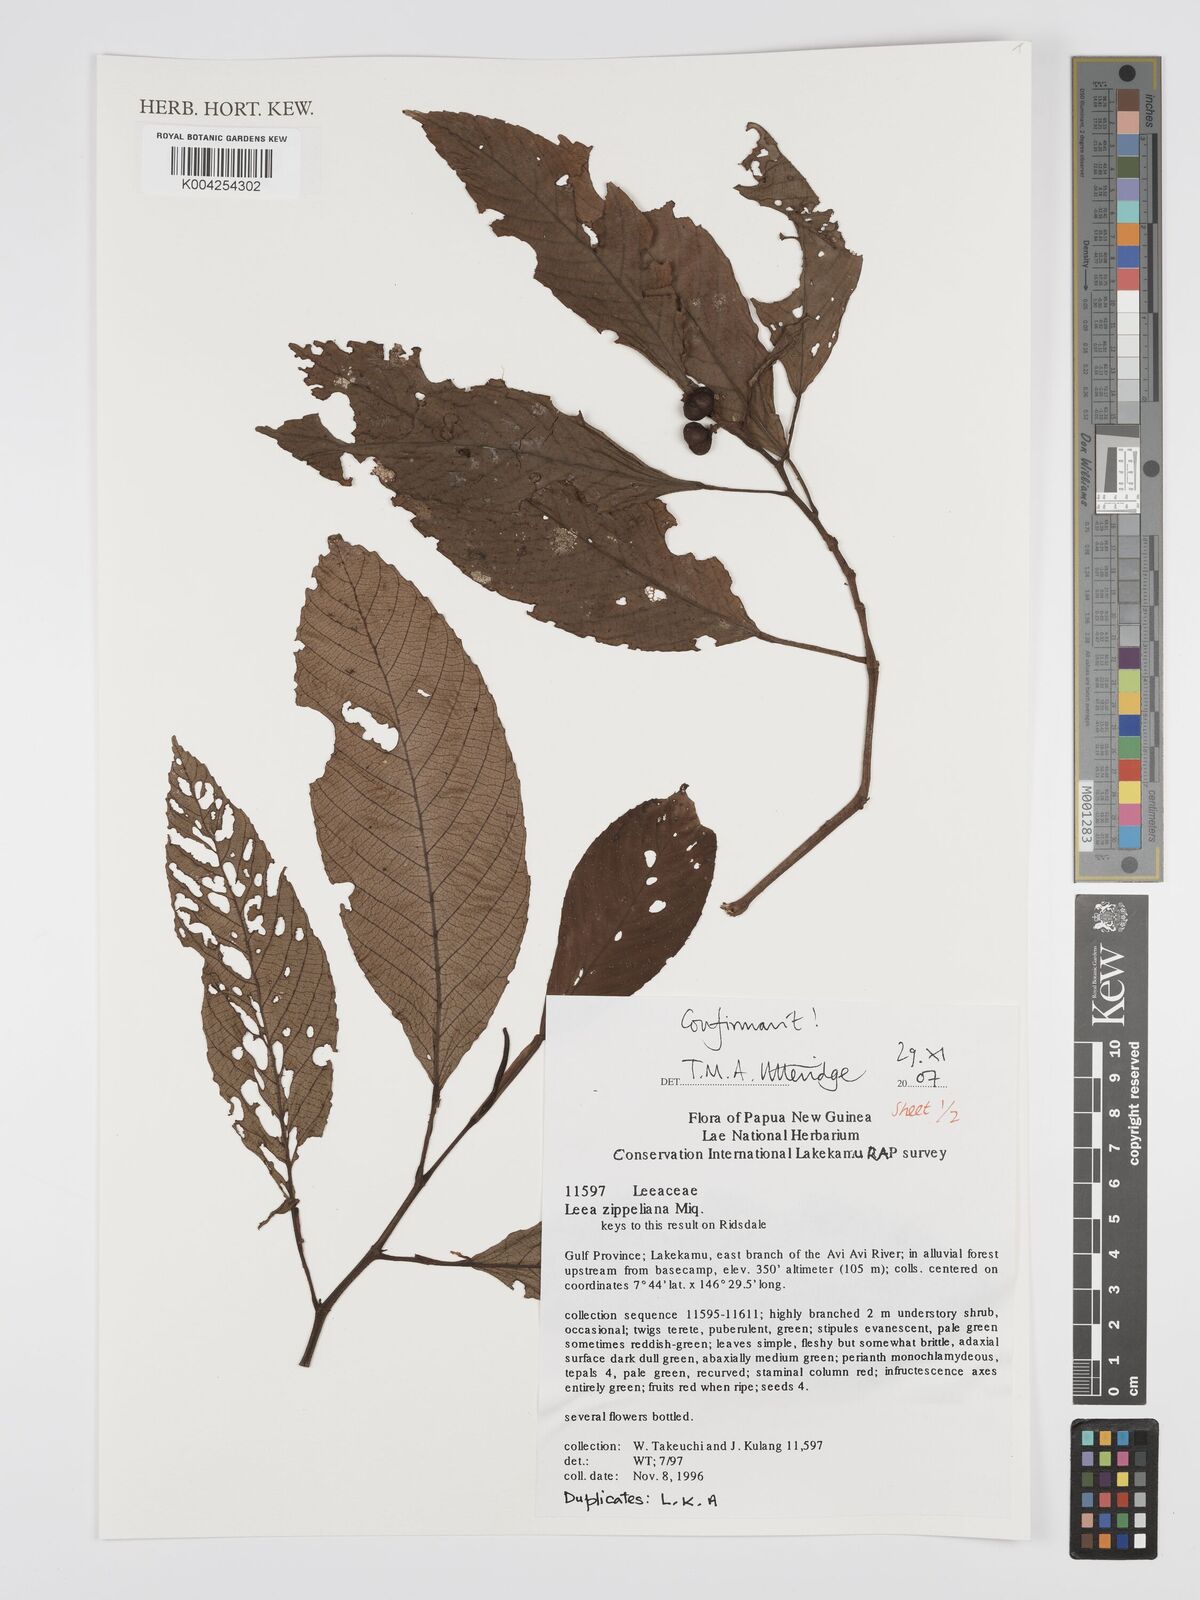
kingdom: Plantae
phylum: Tracheophyta
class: Magnoliopsida
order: Vitales
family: Vitaceae
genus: Leea
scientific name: Leea zippeliana
